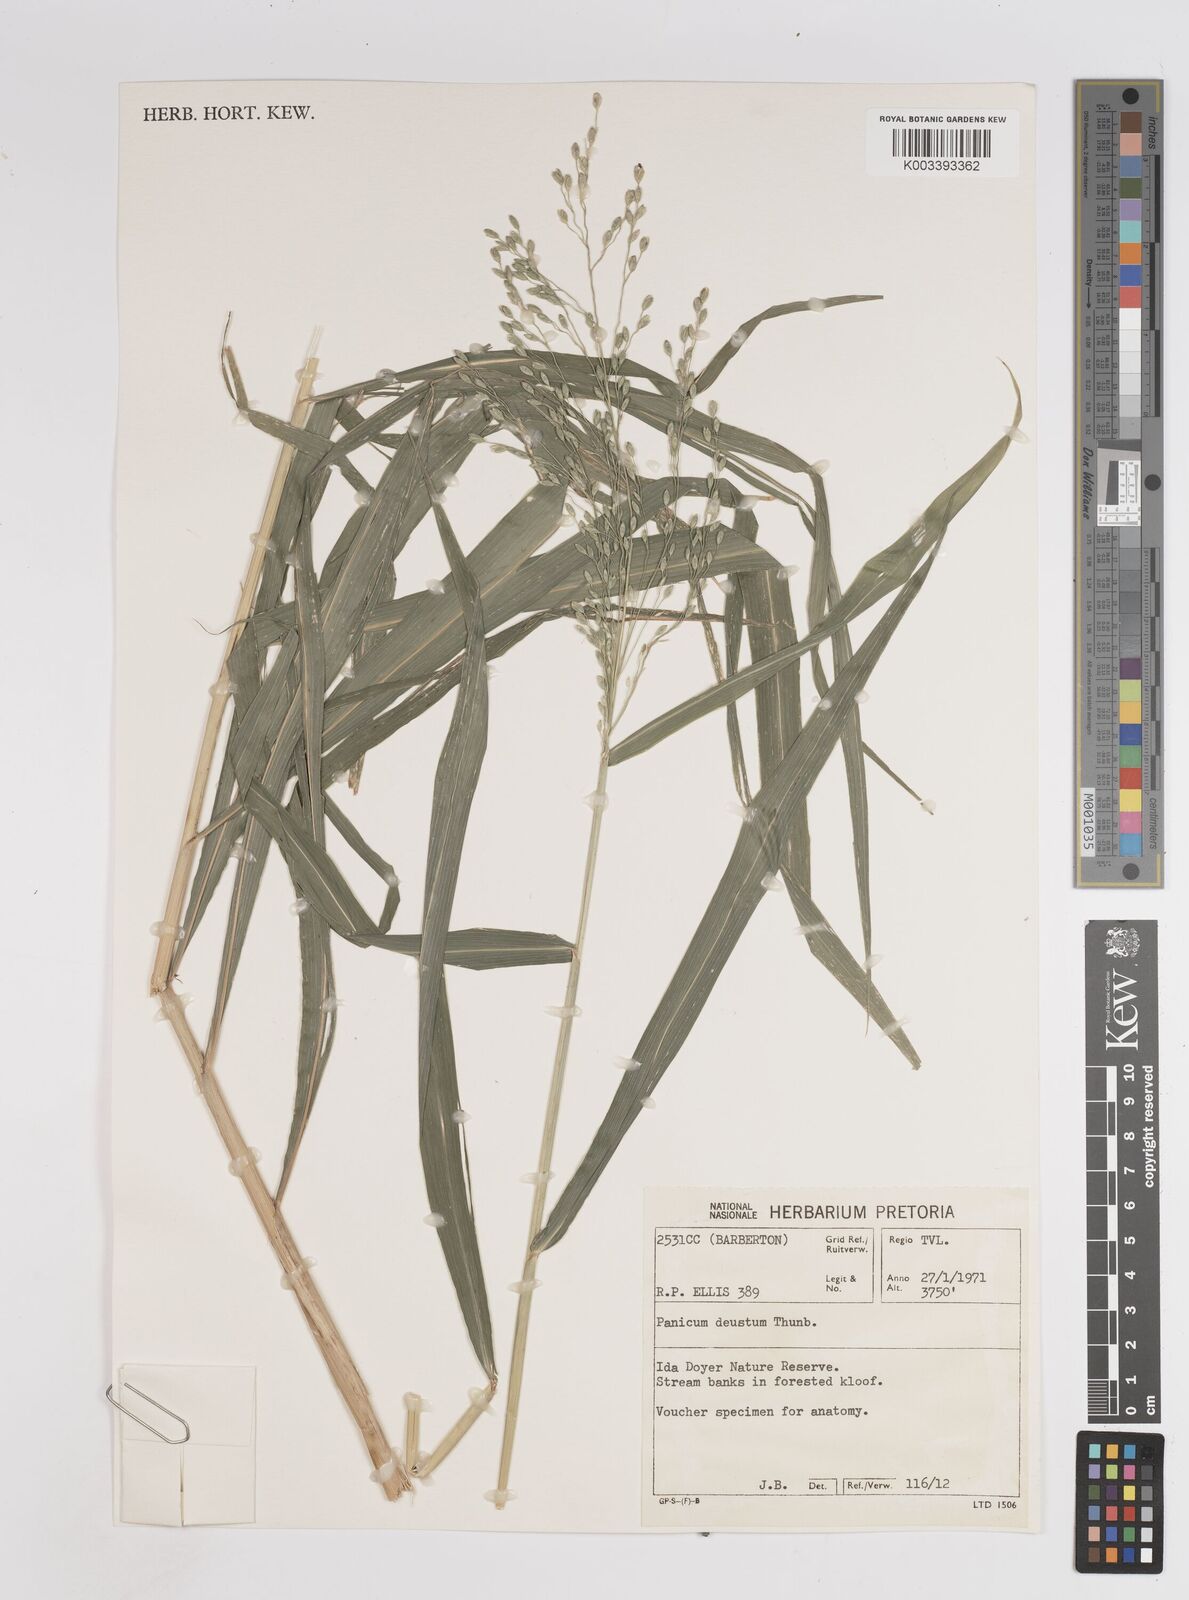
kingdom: Plantae
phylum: Tracheophyta
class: Liliopsida
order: Poales
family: Poaceae
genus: Panicum
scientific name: Panicum deustum
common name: Reed panicum
